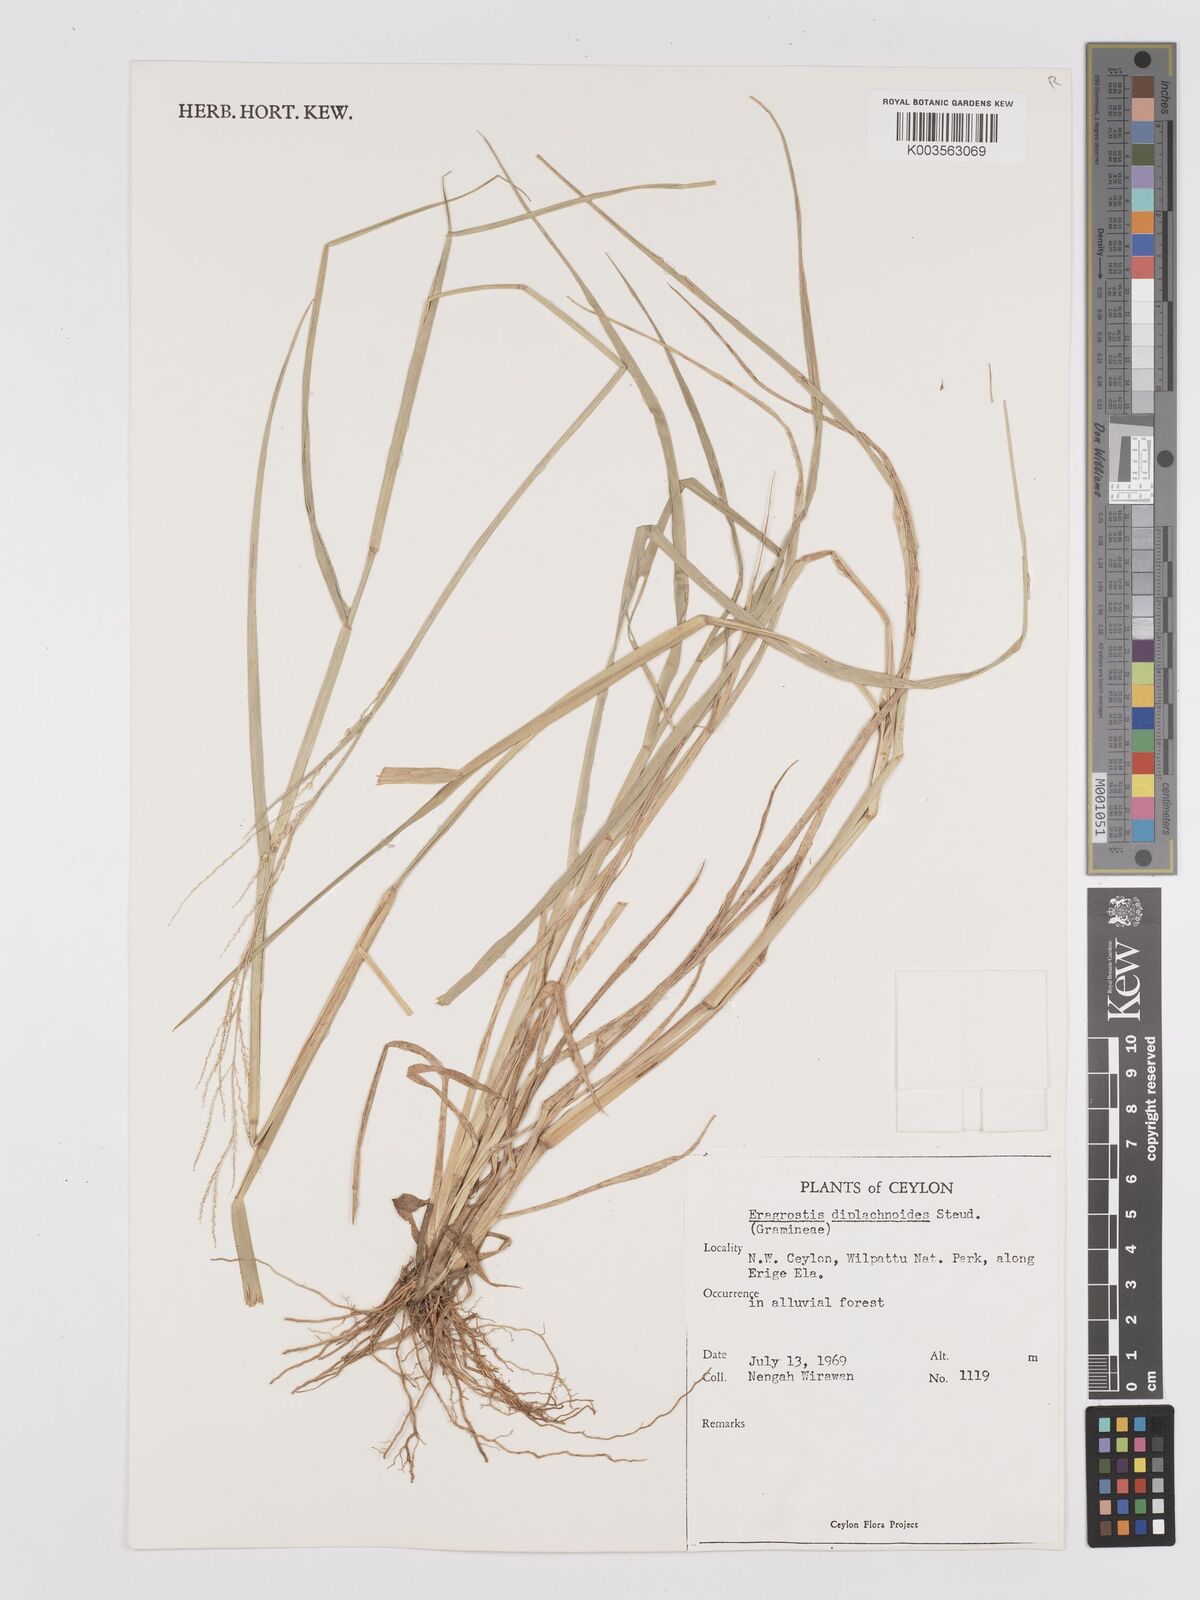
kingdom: Plantae
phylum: Tracheophyta
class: Liliopsida
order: Poales
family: Poaceae
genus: Eragrostis
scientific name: Eragrostis japonica
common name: Pond lovegrass
